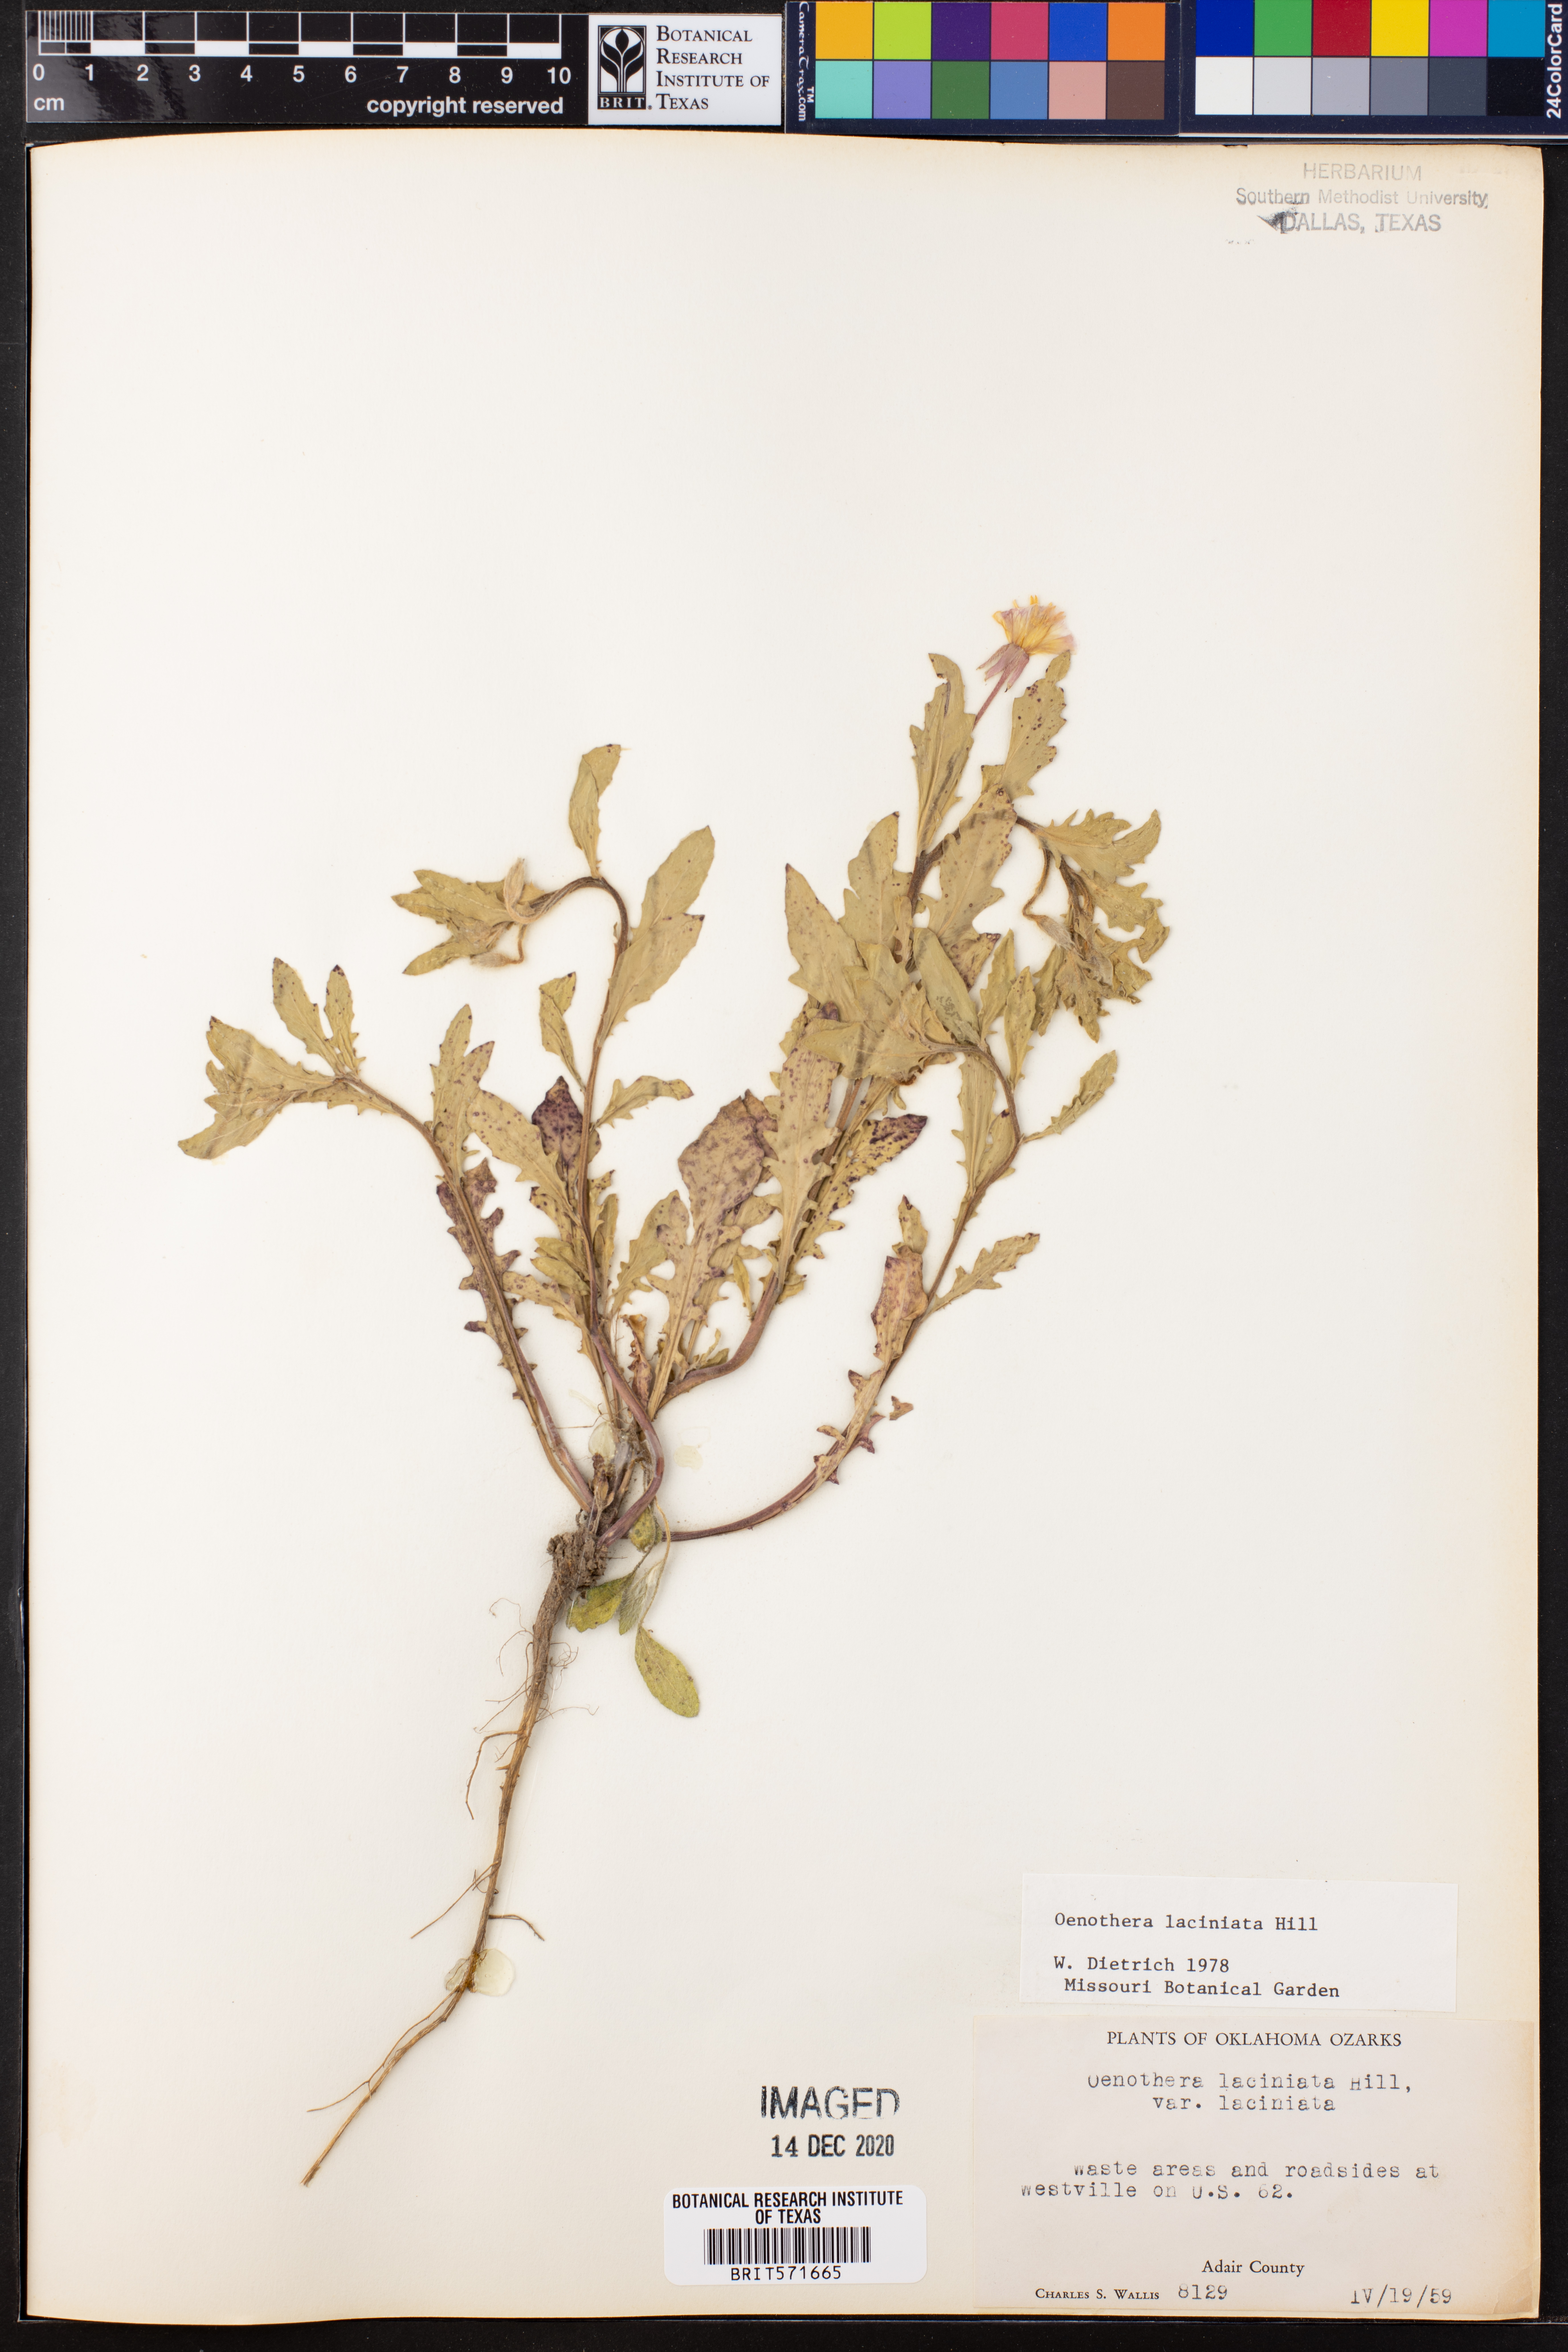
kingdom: Plantae
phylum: Tracheophyta
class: Magnoliopsida
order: Myrtales
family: Onagraceae
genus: Oenothera
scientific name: Oenothera laciniata
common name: Cut-leaved evening-primrose
